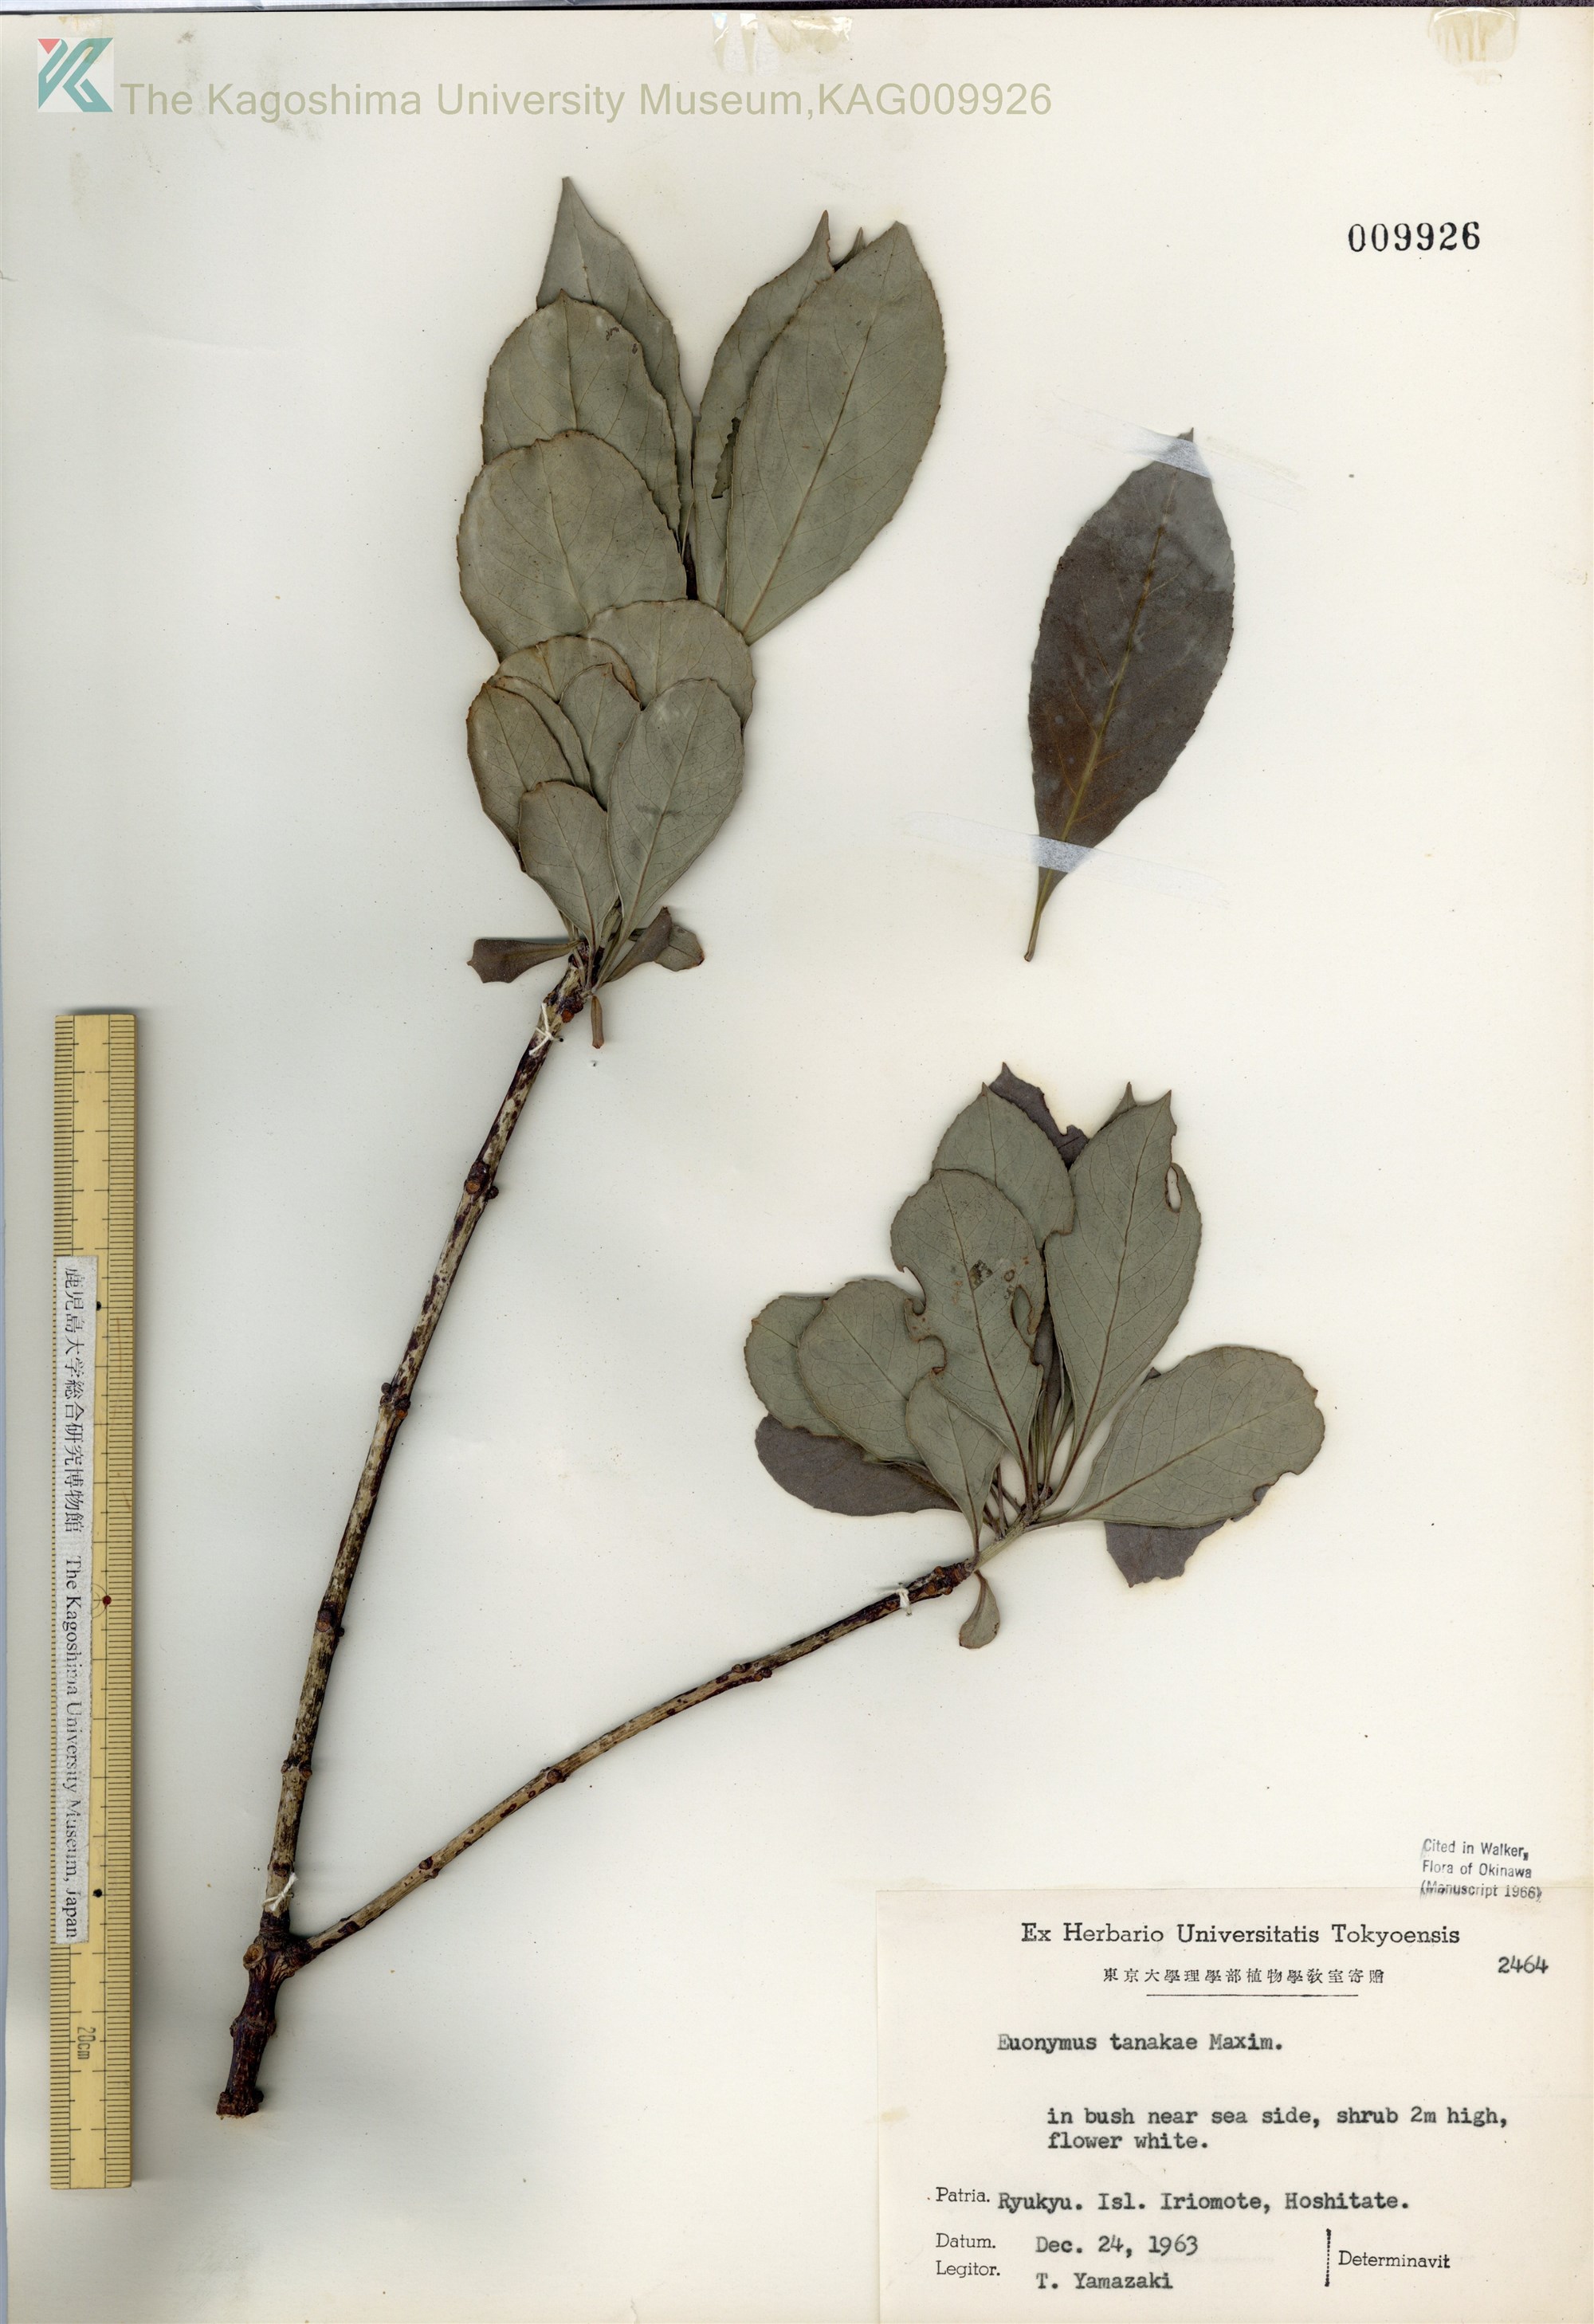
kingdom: Plantae
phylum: Tracheophyta
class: Magnoliopsida
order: Celastrales
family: Celastraceae
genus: Euonymus
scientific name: Euonymus carnosus
